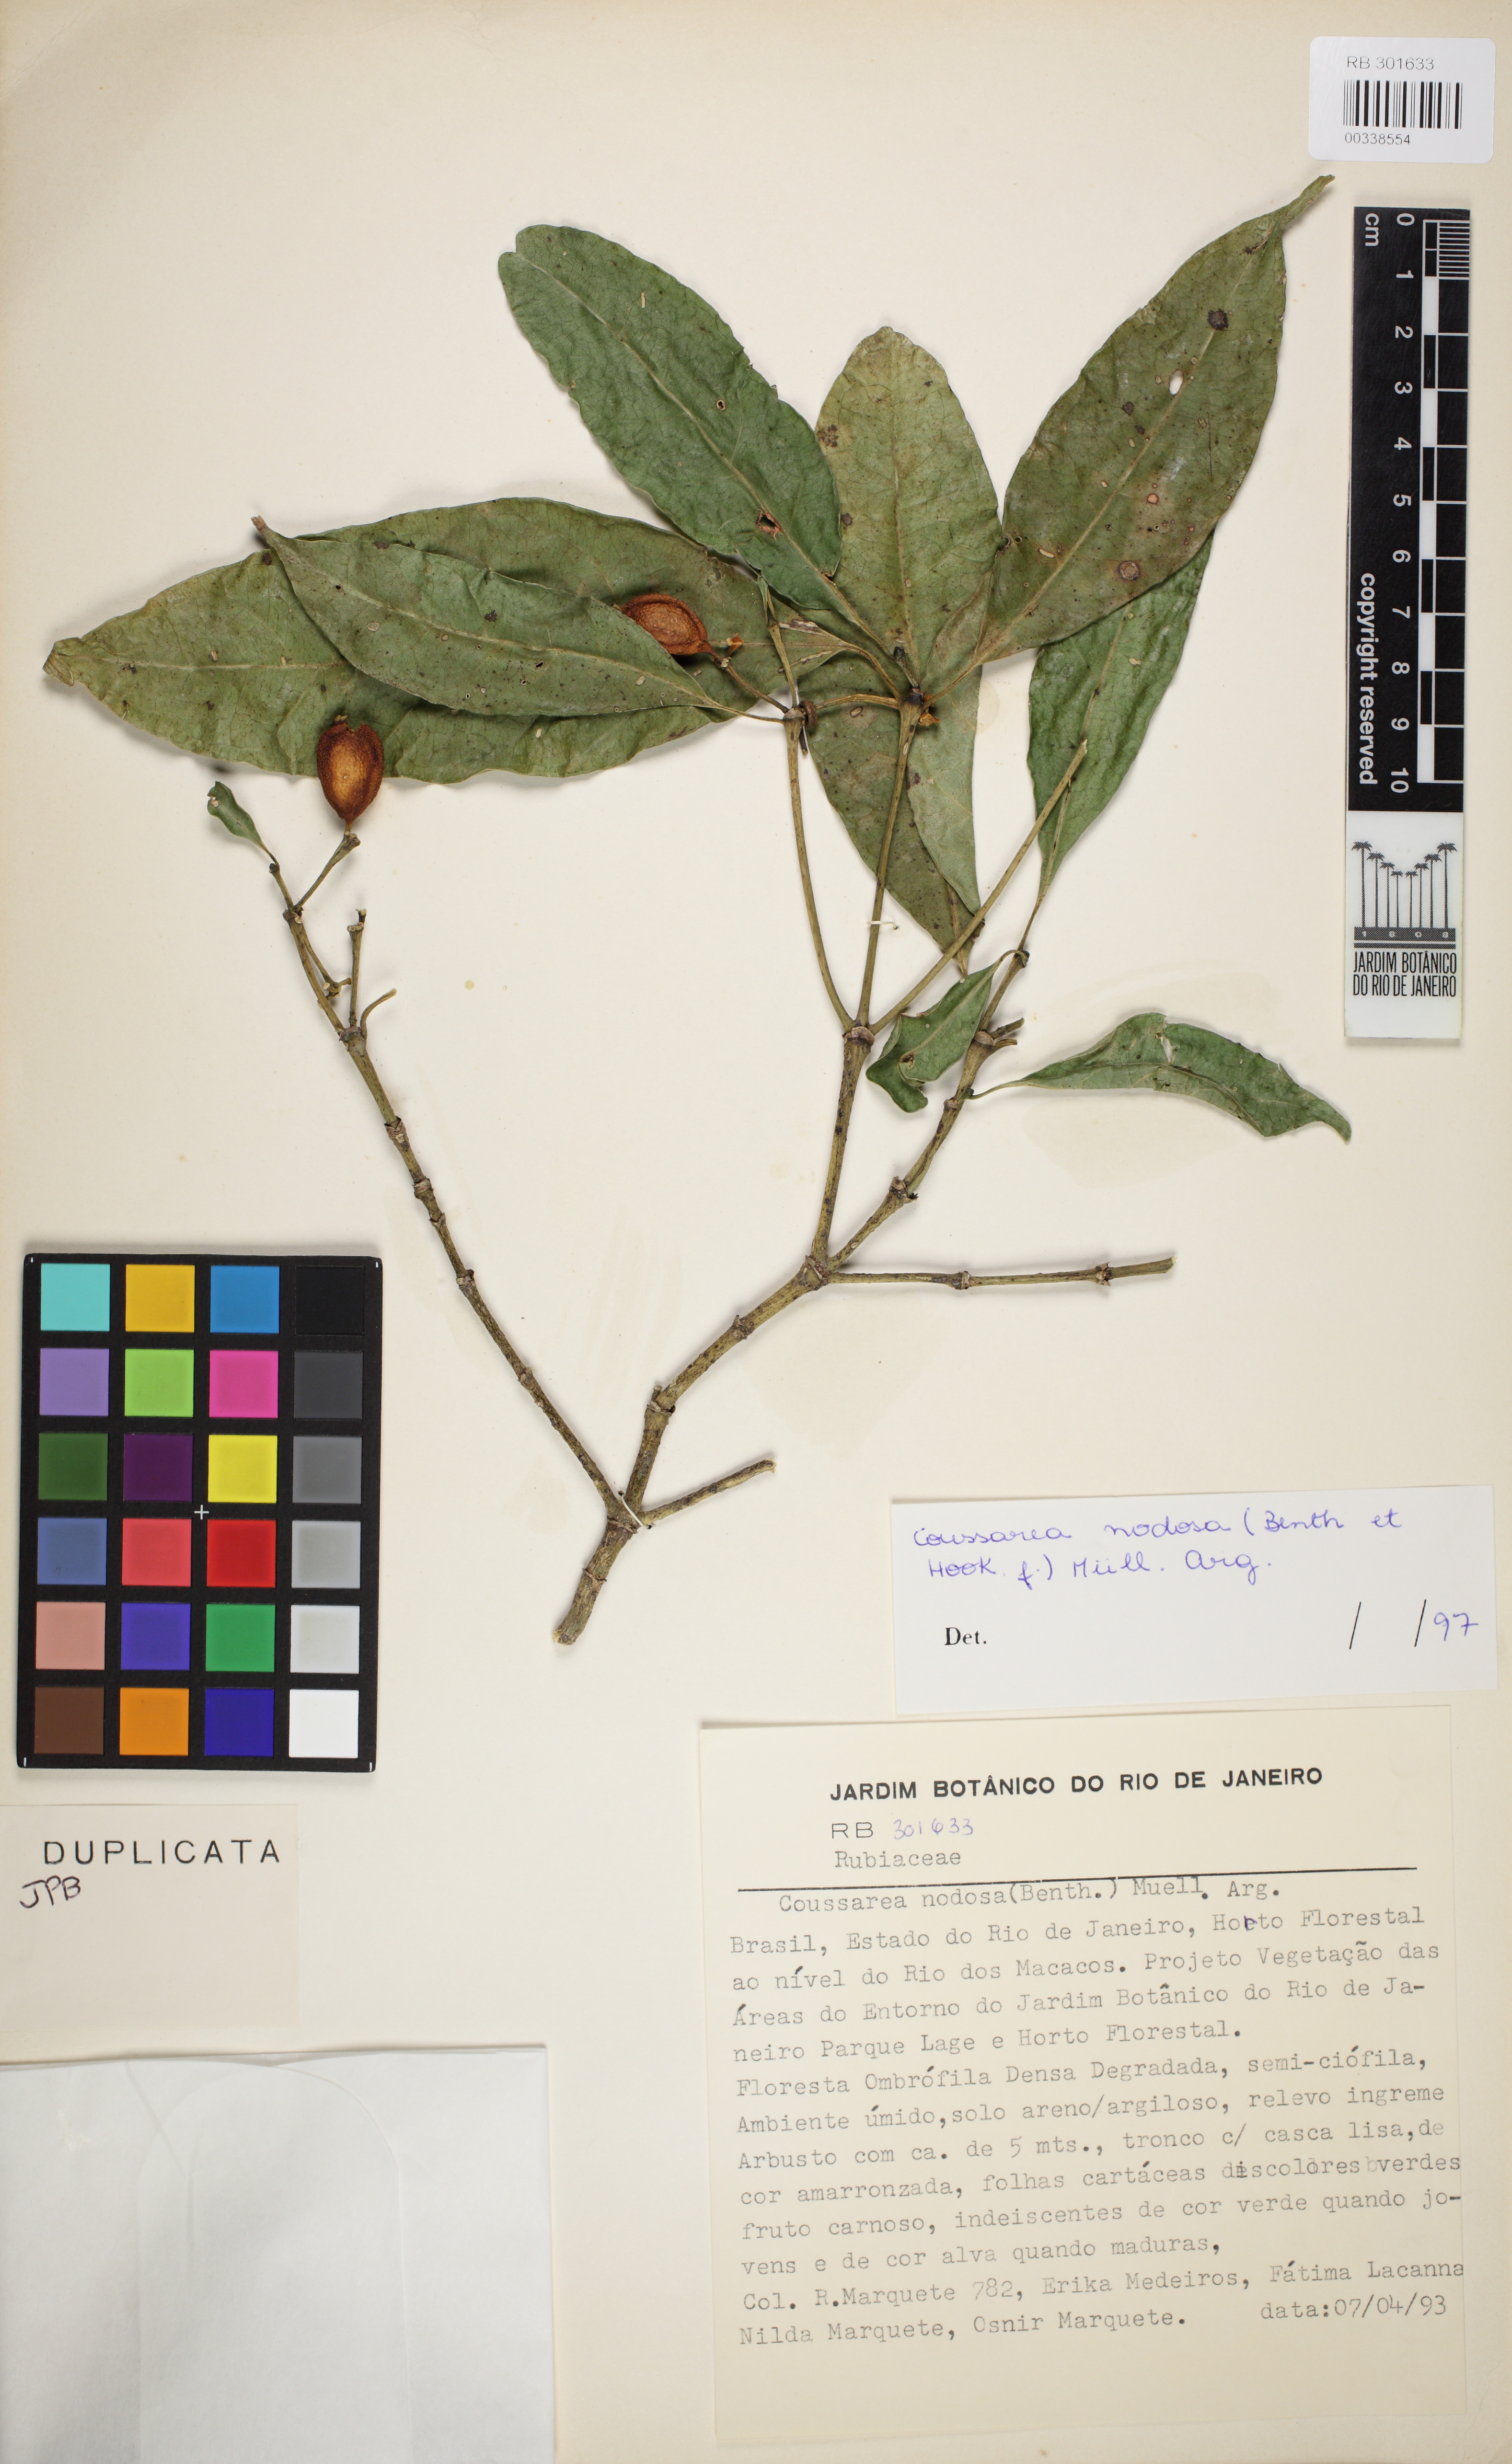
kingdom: Plantae
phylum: Tracheophyta
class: Magnoliopsida
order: Gentianales
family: Rubiaceae
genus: Coussarea
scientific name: Coussarea nodosa
